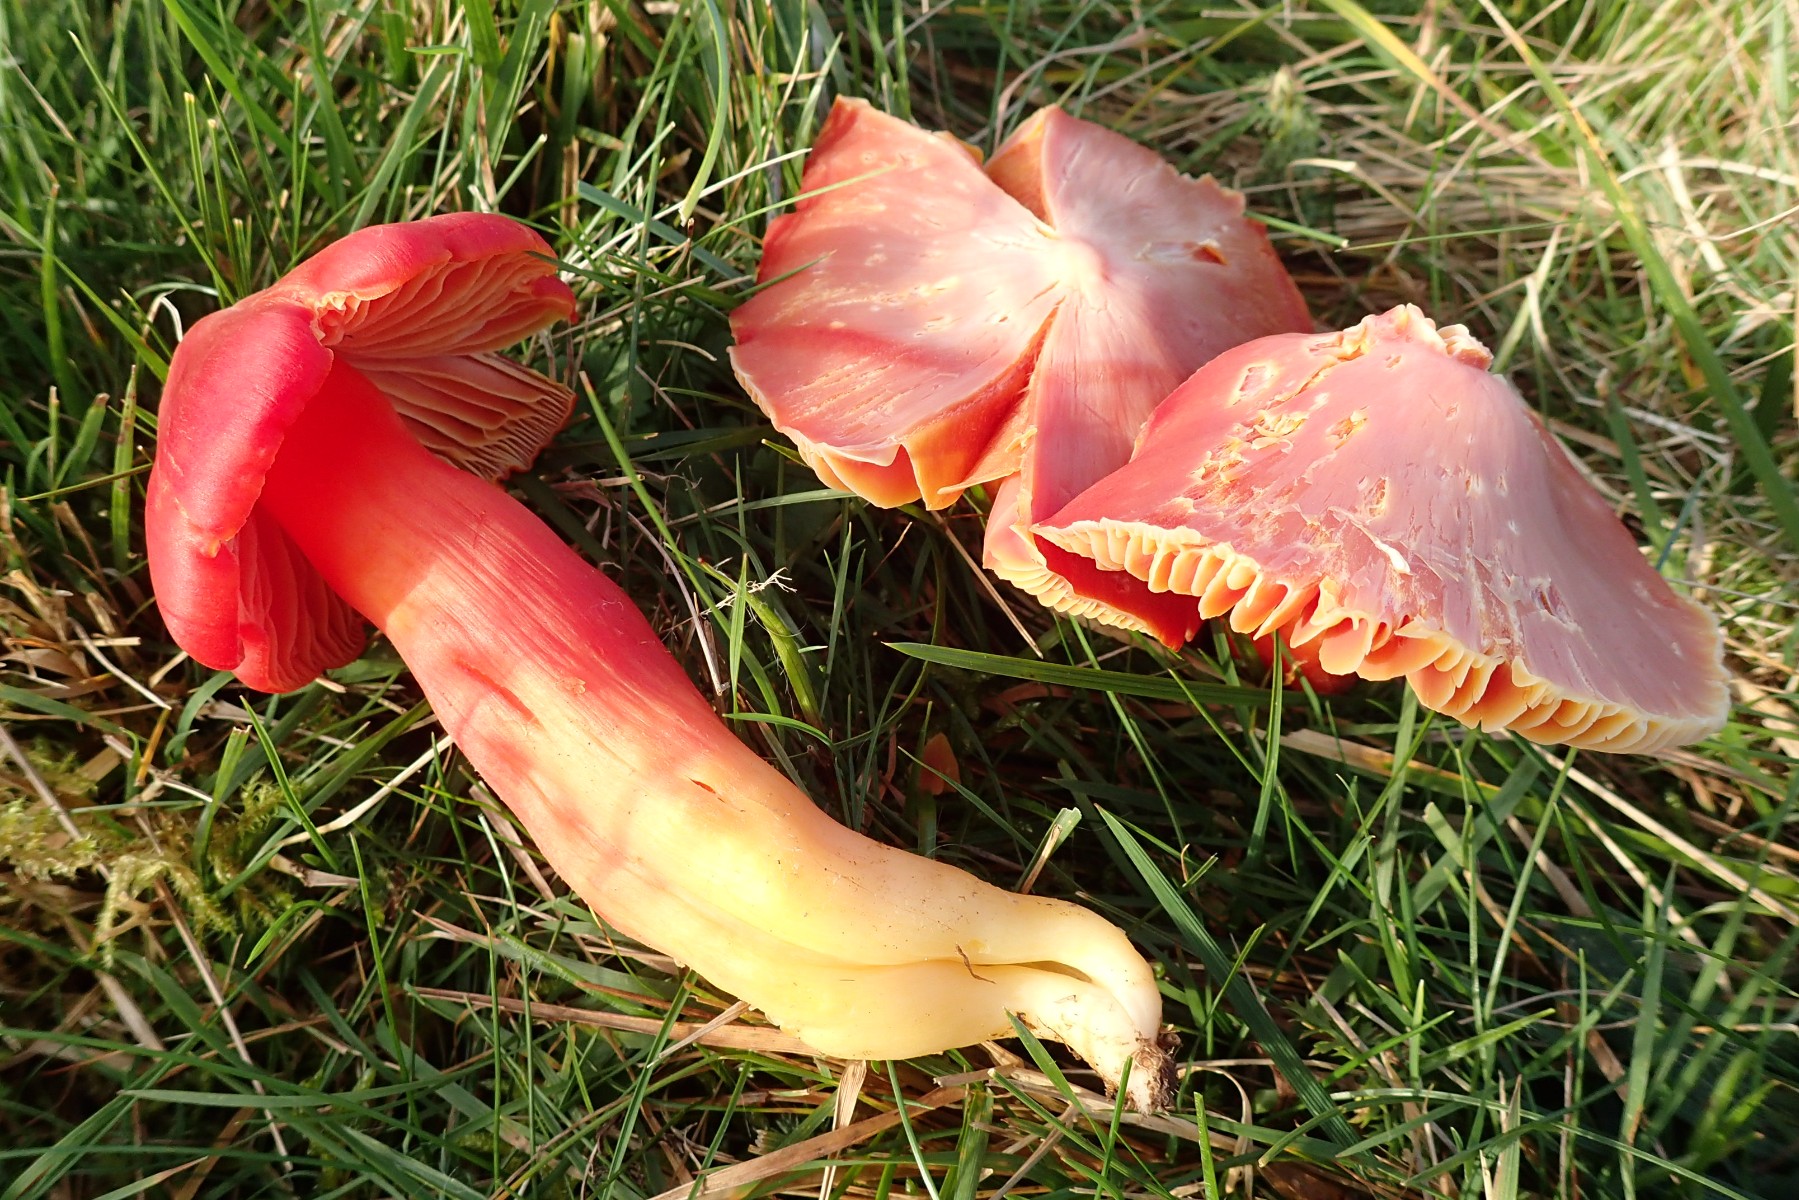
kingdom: Fungi
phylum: Basidiomycota
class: Agaricomycetes
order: Agaricales
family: Hygrophoraceae
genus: Hygrocybe
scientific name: Hygrocybe splendidissima
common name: knaldrød vokshat
